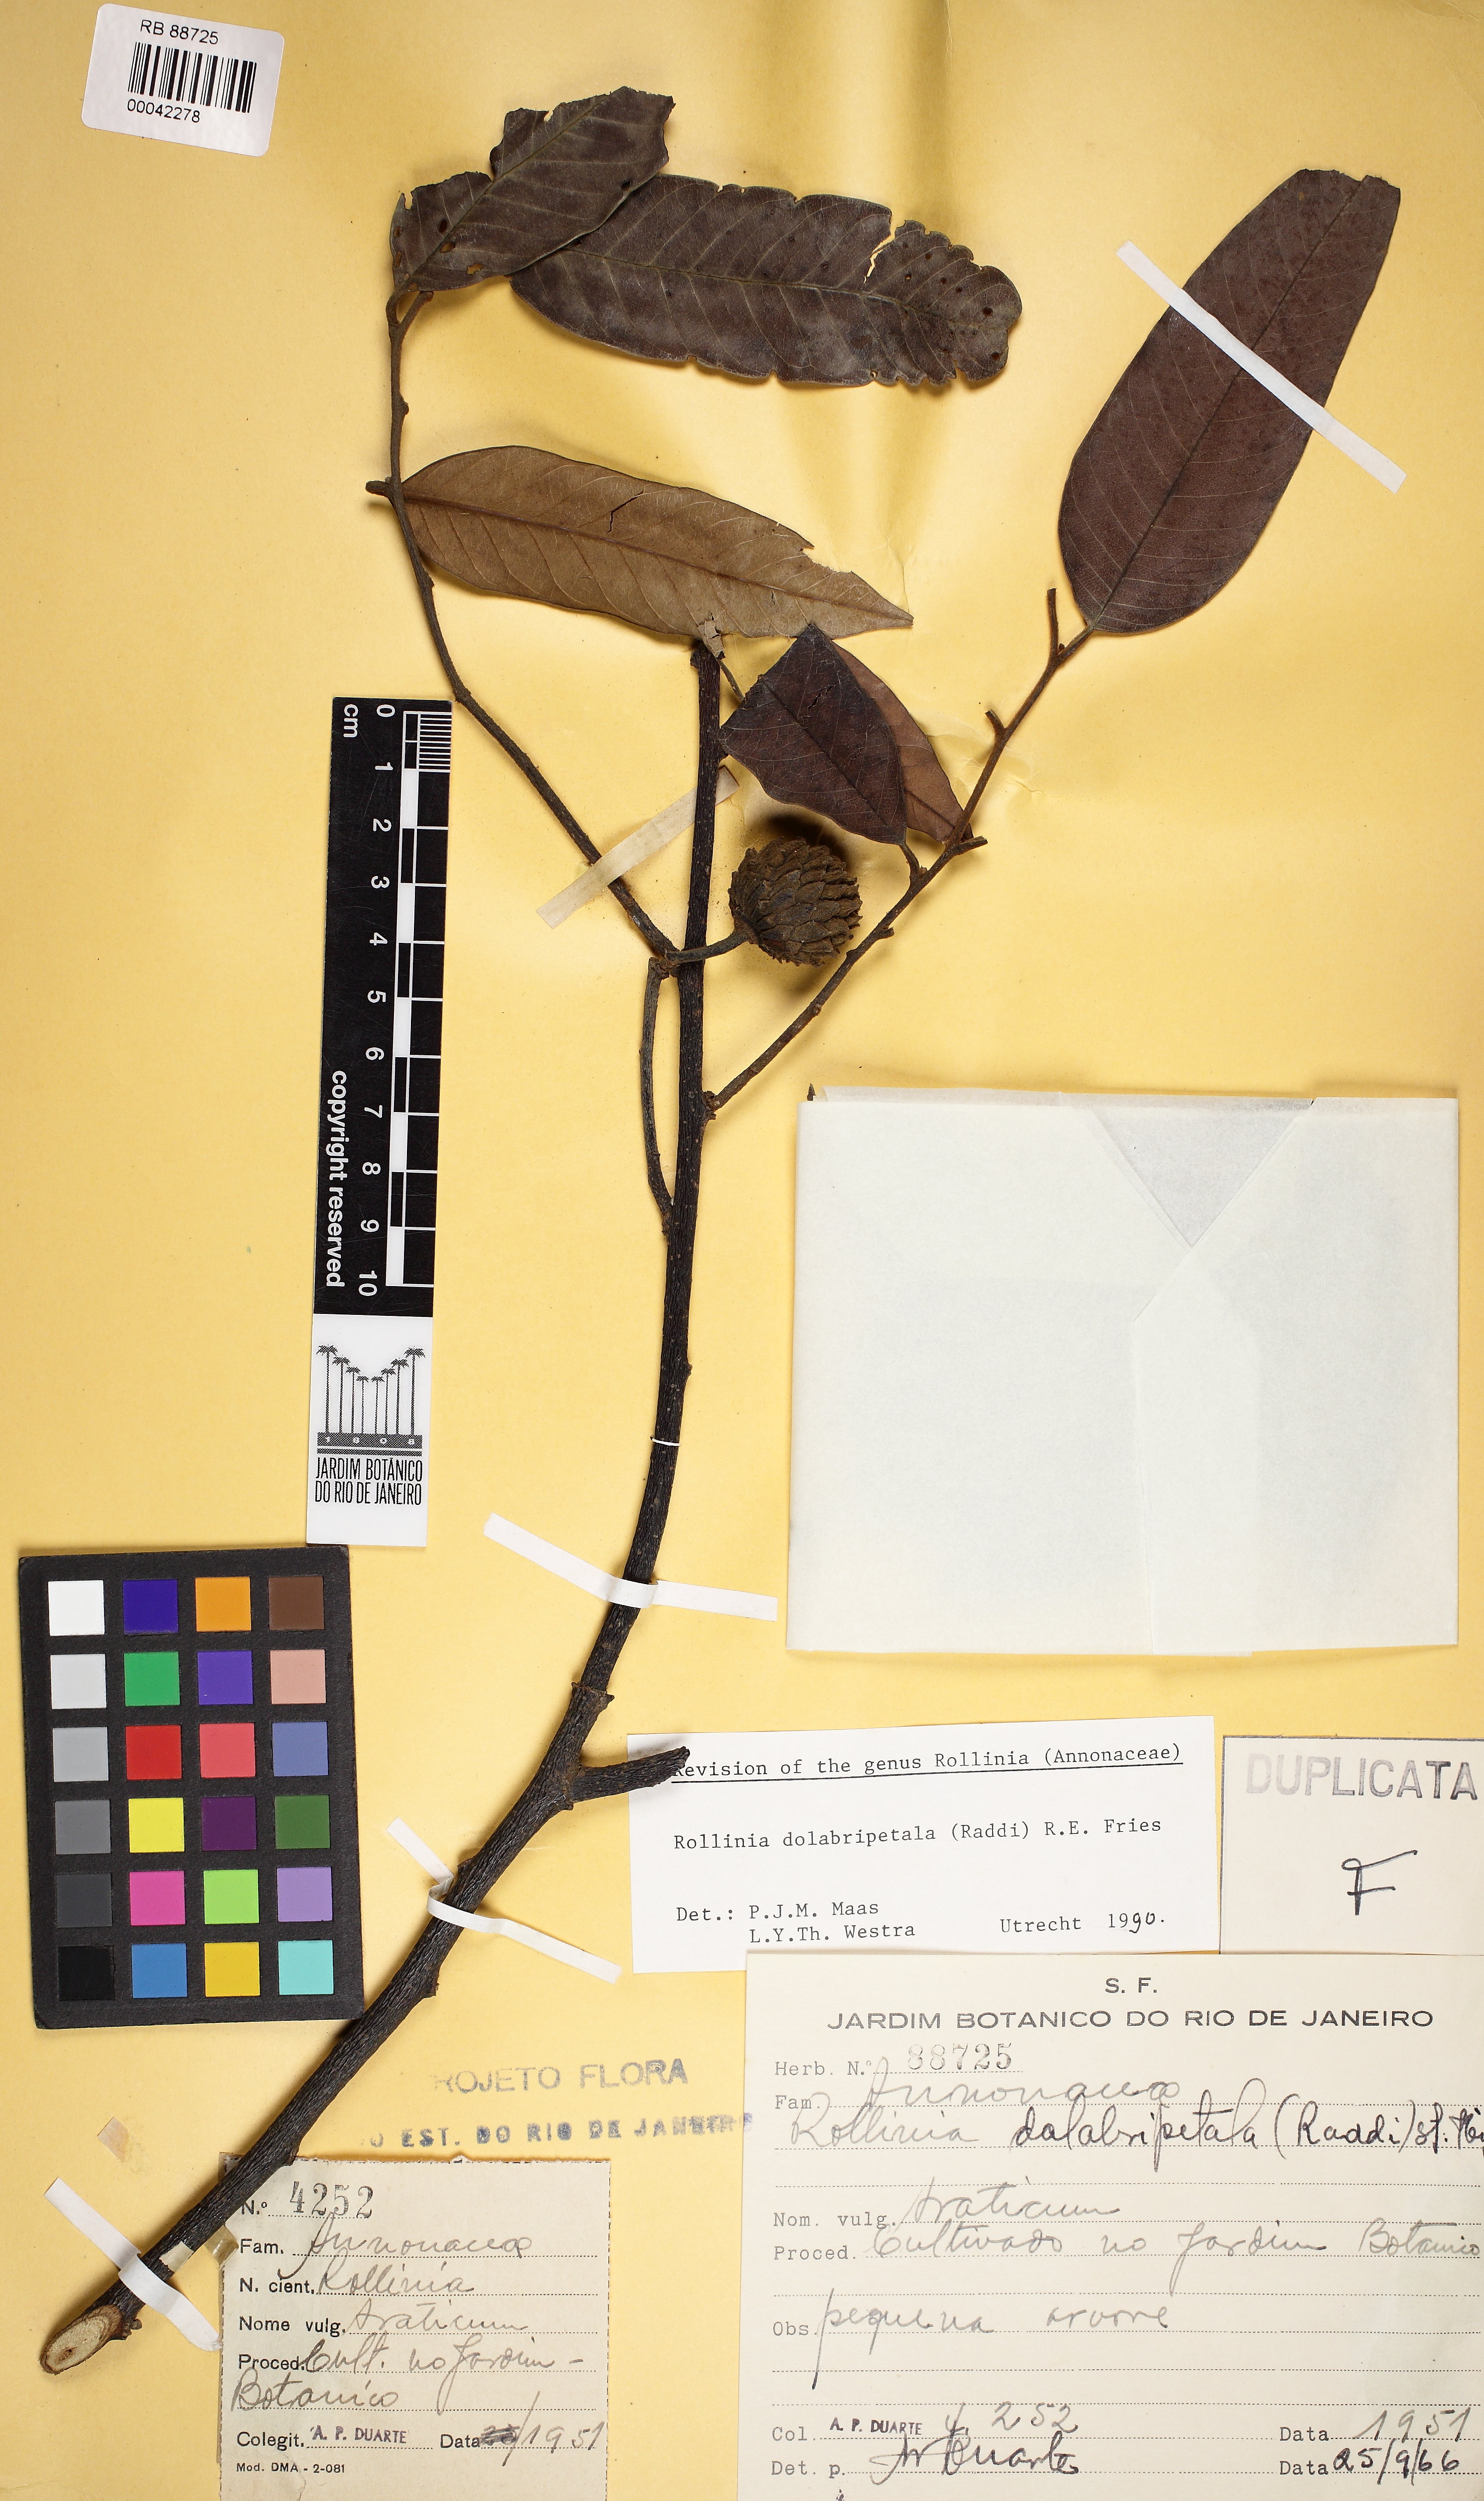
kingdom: Plantae
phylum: Tracheophyta
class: Magnoliopsida
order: Magnoliales
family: Annonaceae
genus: Annona
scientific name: Annona dolabripetala
